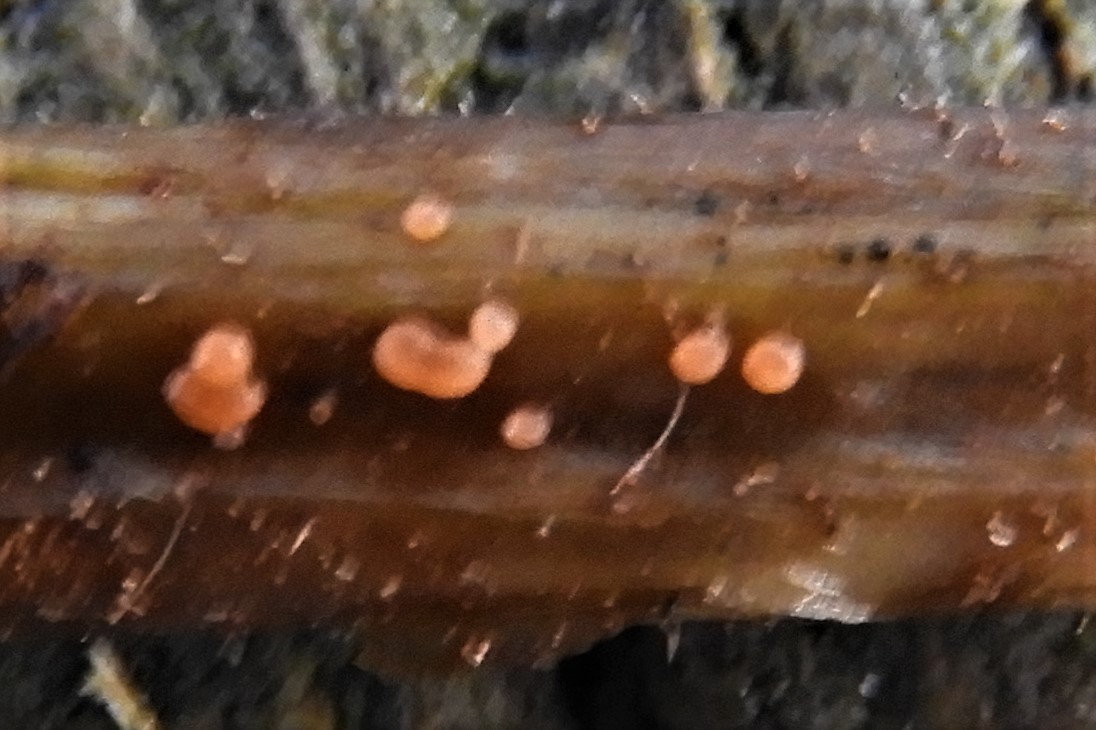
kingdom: Fungi
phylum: Ascomycota
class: Leotiomycetes
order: Helotiales
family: Calloriaceae
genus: Calloria
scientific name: Calloria urticae
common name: nælde-orangeskive
